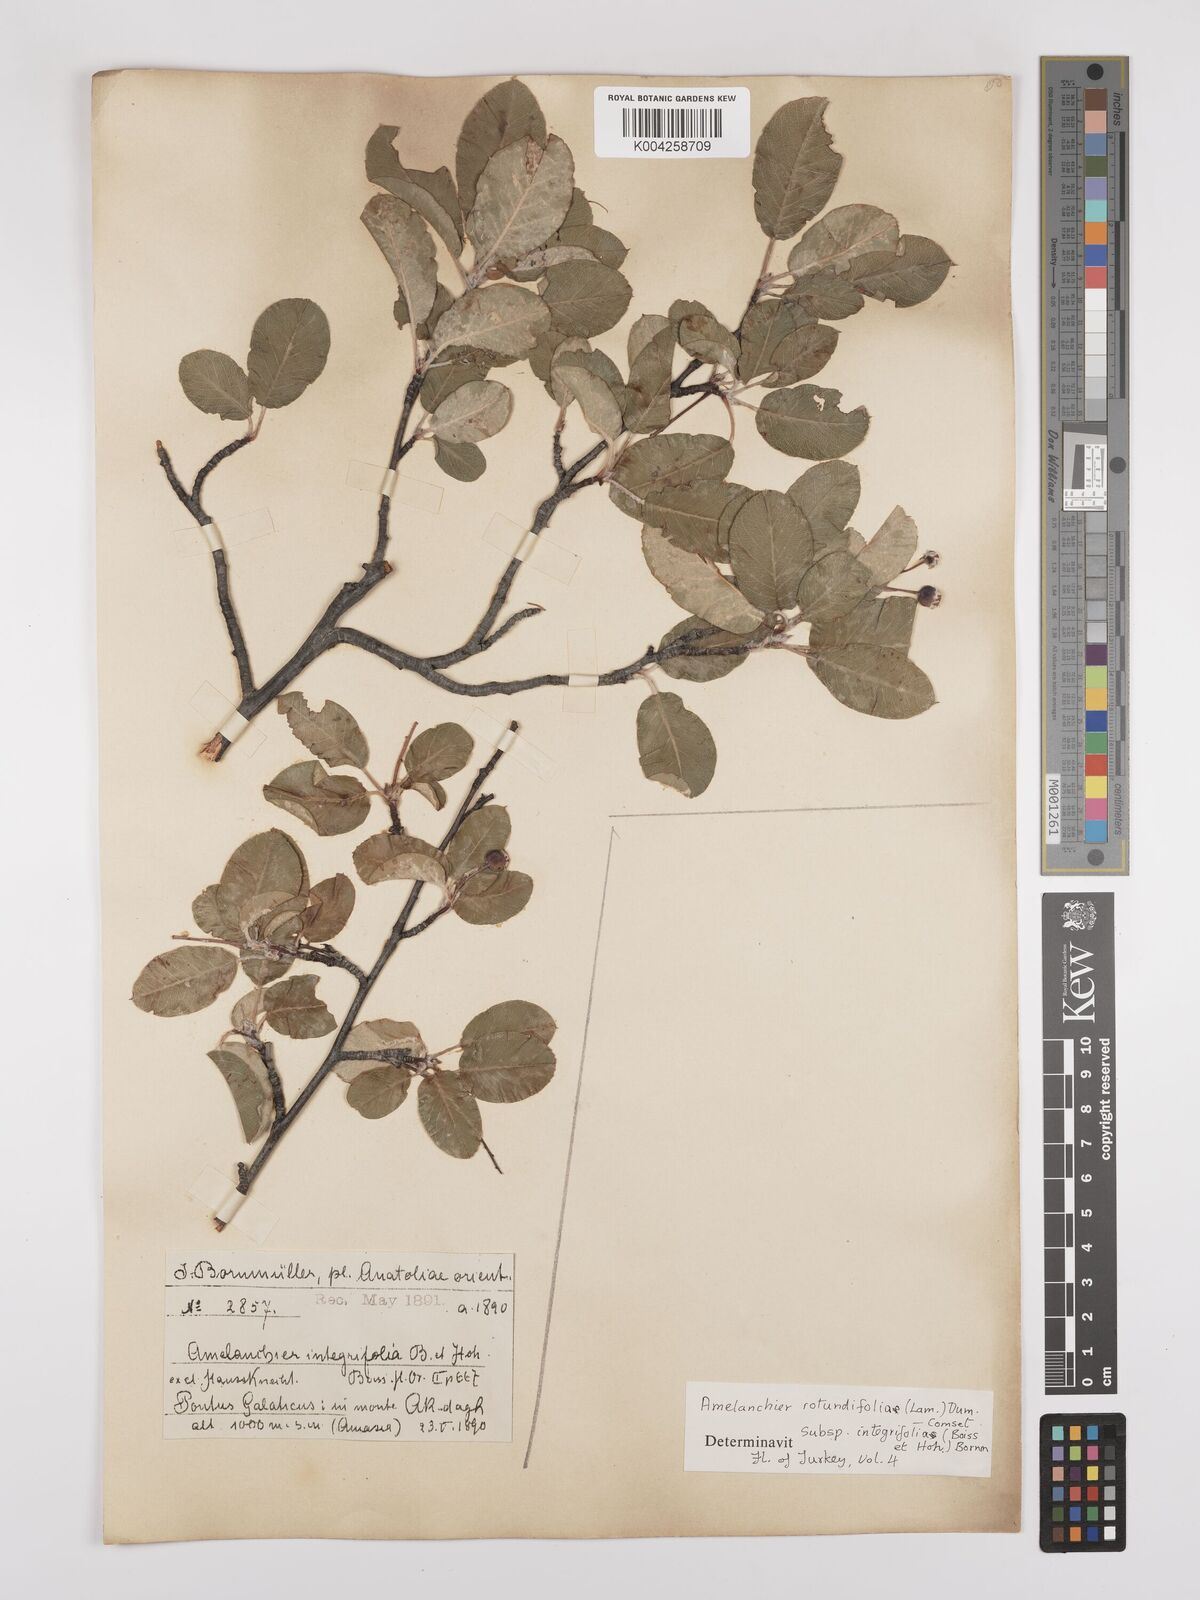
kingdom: Plantae
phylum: Tracheophyta
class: Magnoliopsida
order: Rosales
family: Rosaceae
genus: Amelanchier
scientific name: Amelanchier ovalis
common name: Serviceberry
